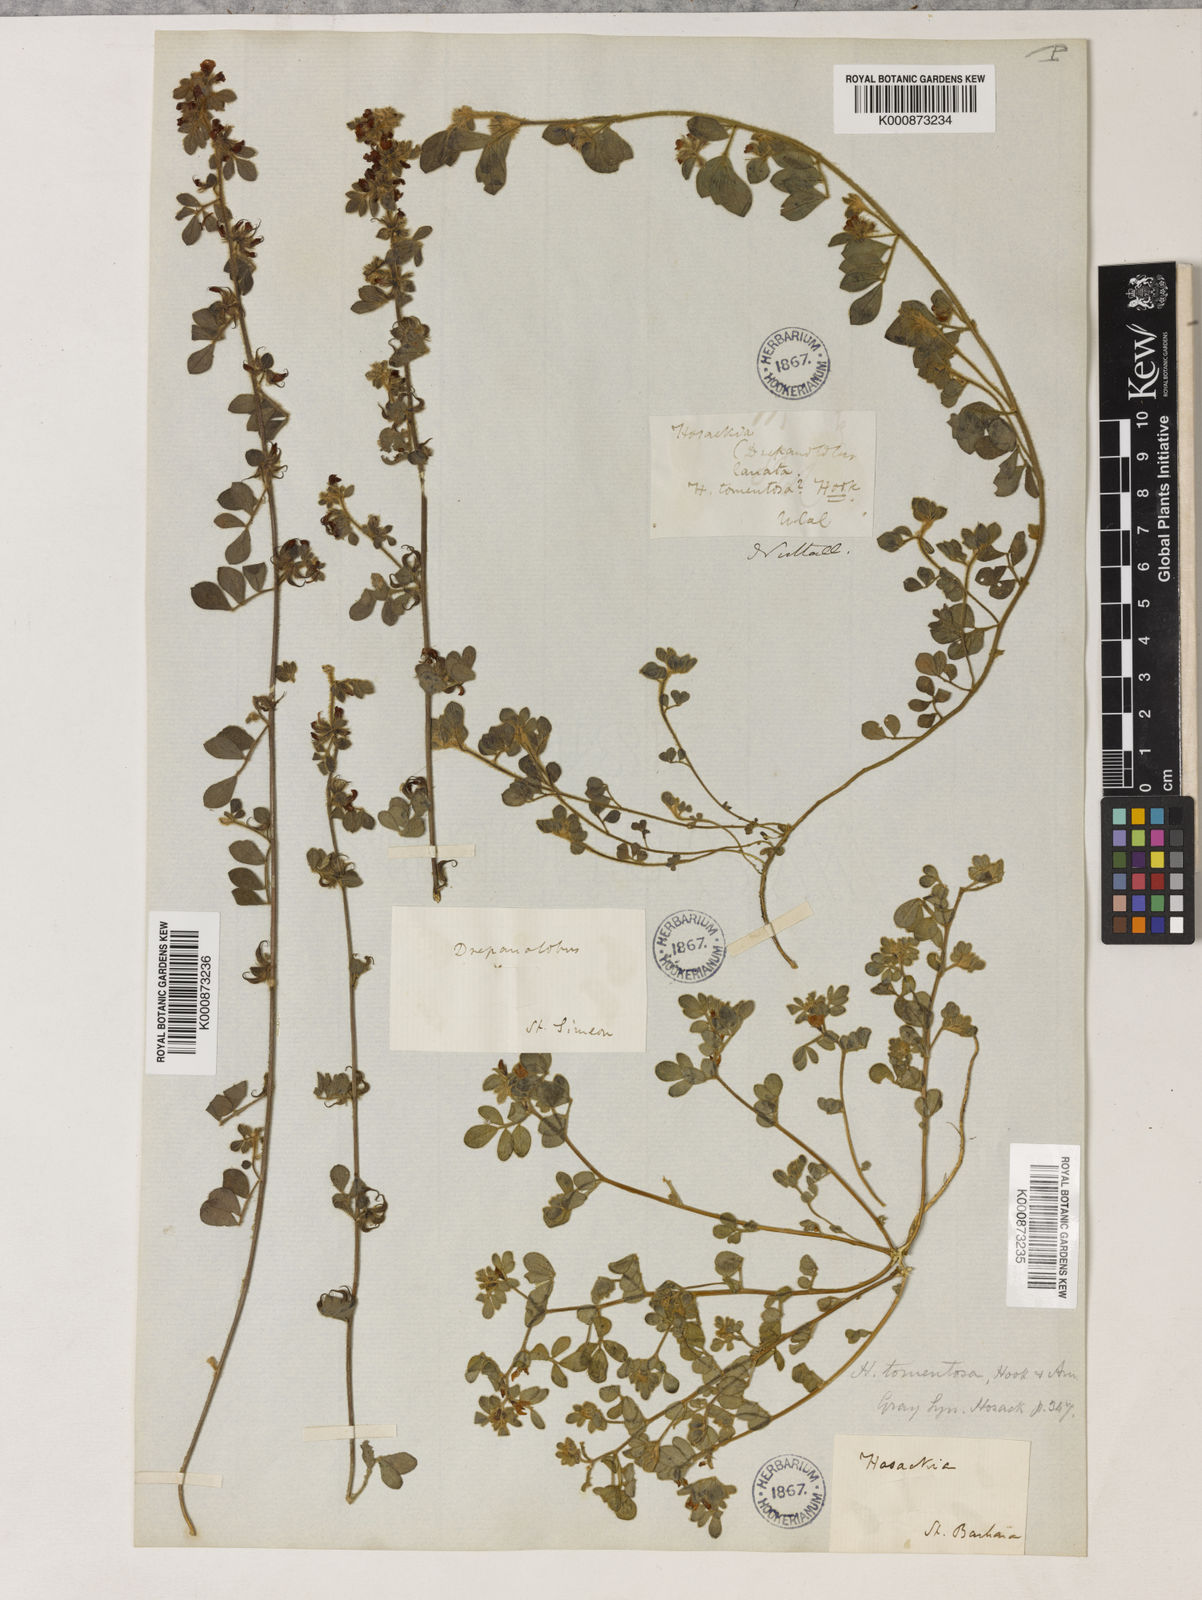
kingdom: Plantae
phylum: Tracheophyta
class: Magnoliopsida
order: Fabales
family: Fabaceae
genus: Acmispon
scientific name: Acmispon tomentosus
